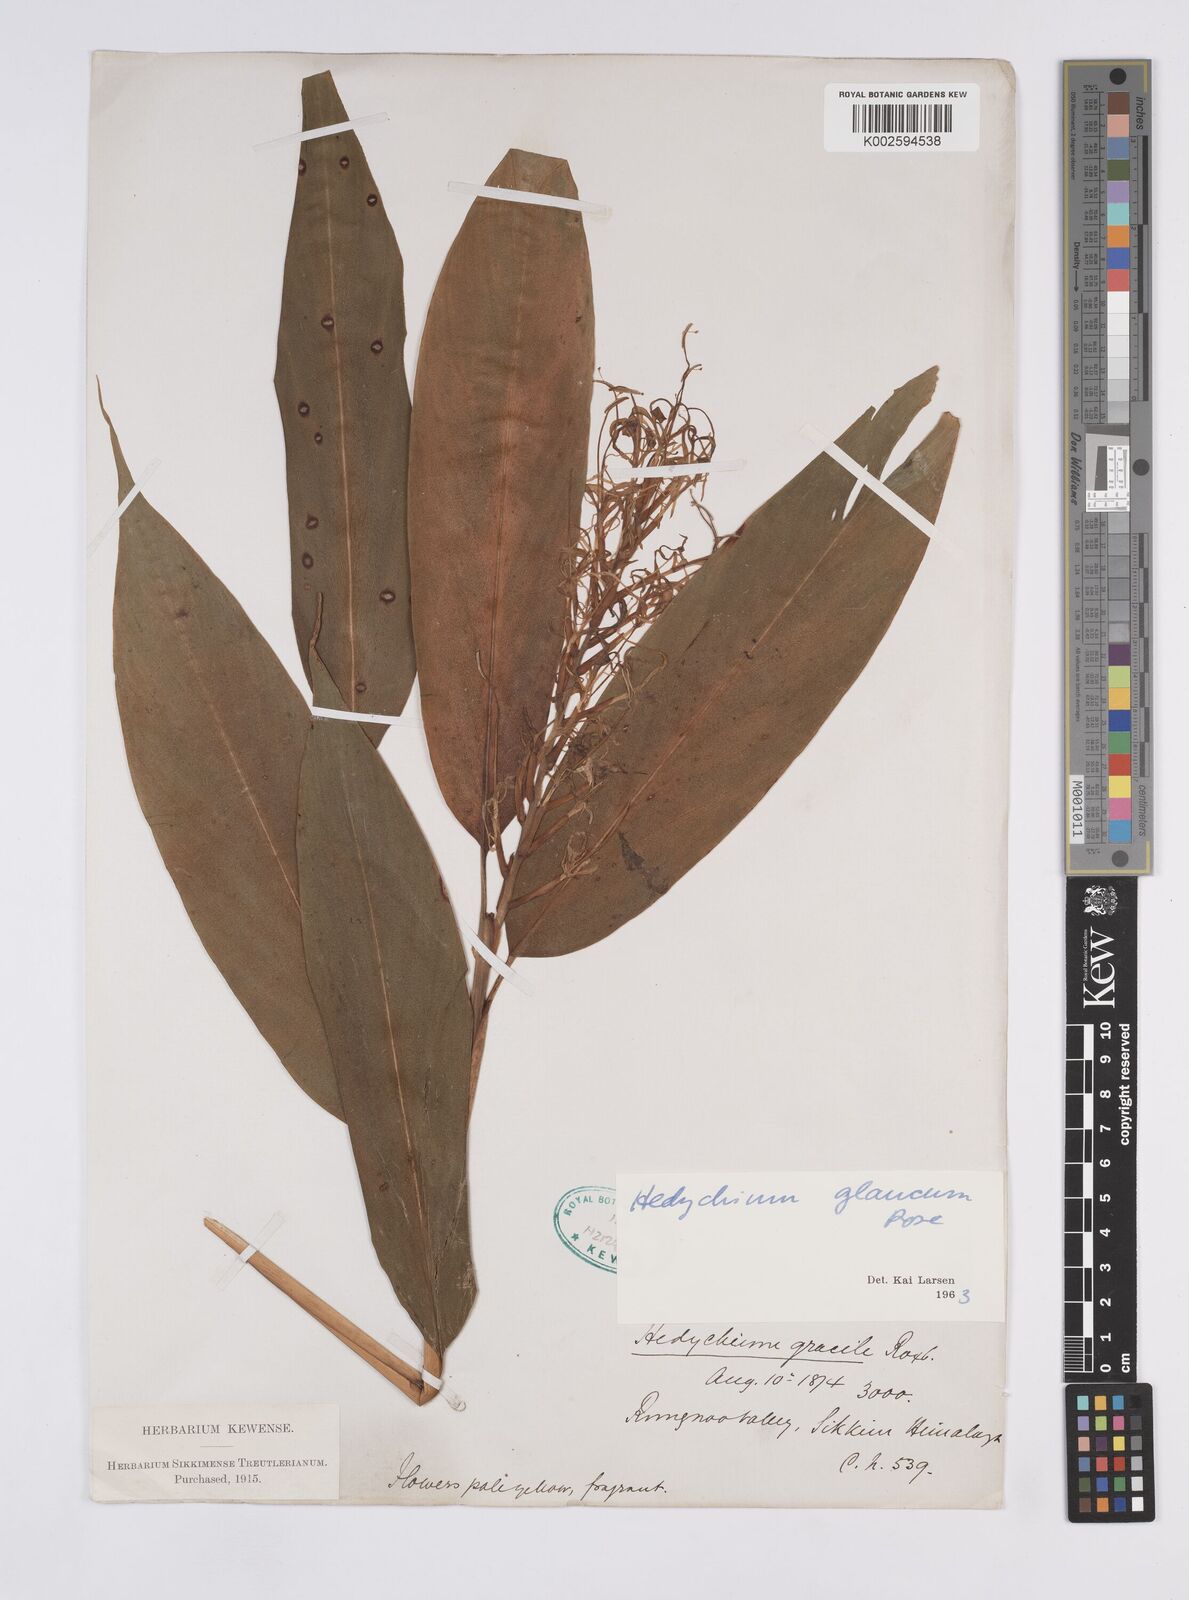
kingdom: Plantae
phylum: Tracheophyta
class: Liliopsida
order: Zingiberales
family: Zingiberaceae
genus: Hedychium
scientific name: Hedychium glaucum
